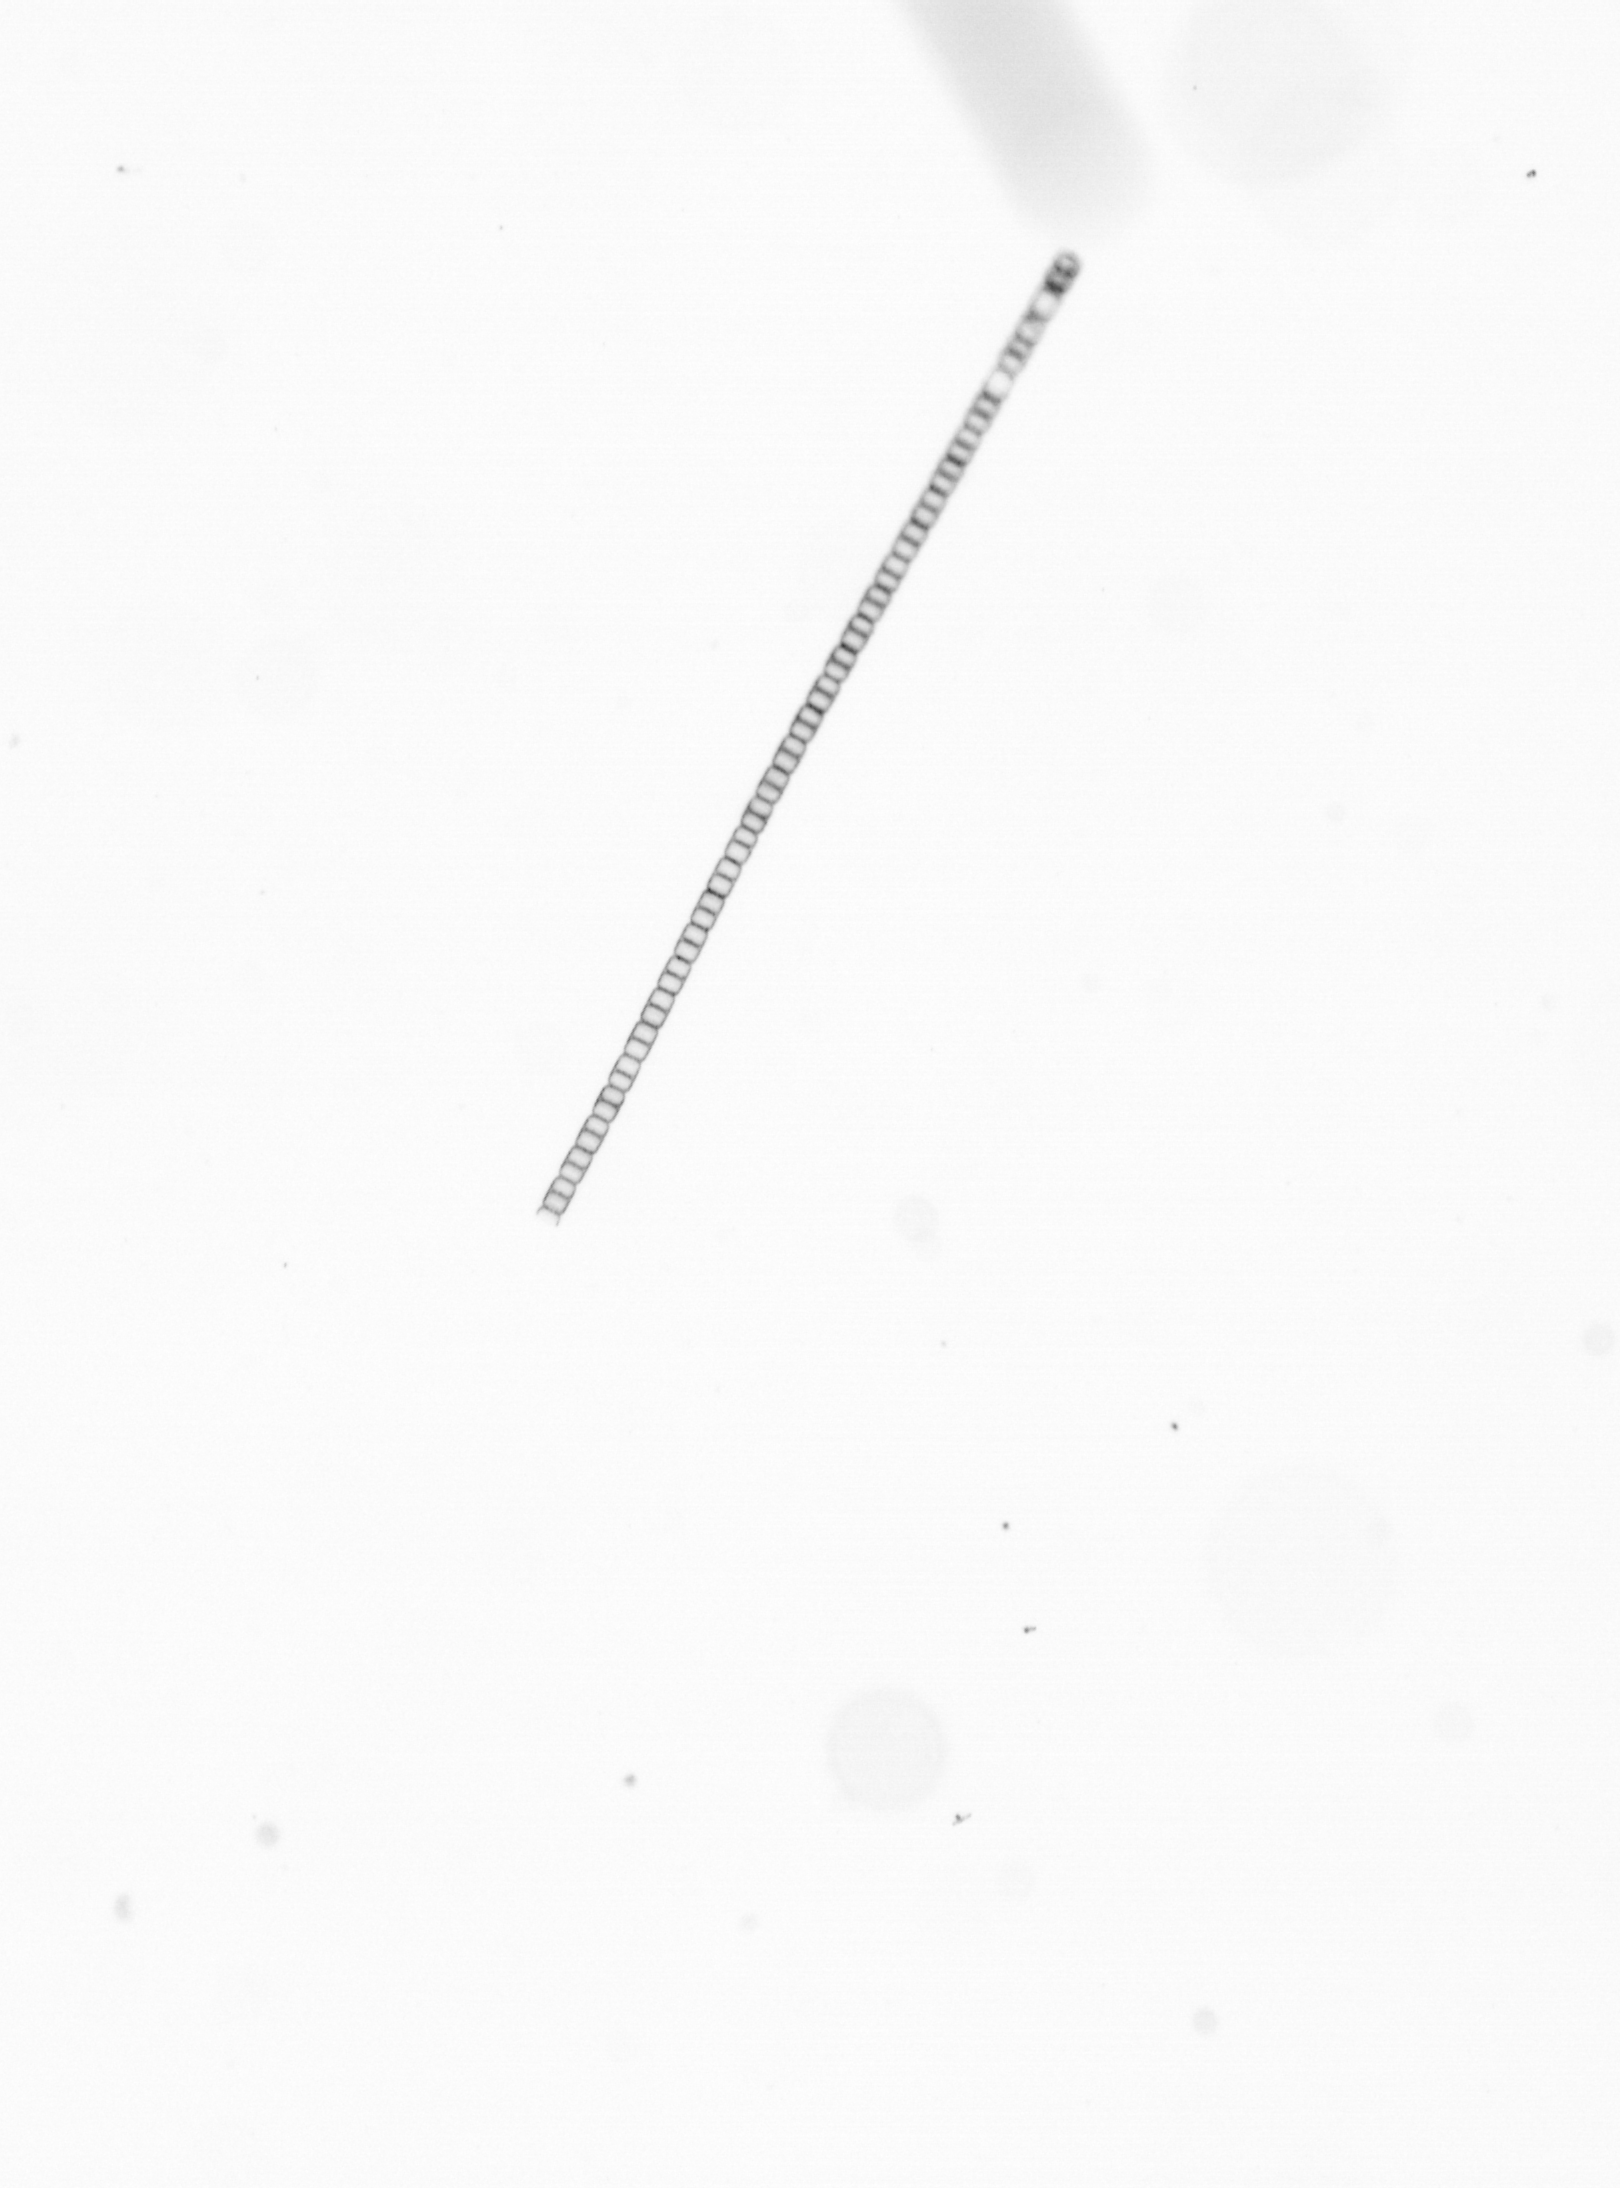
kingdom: Chromista
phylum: Ochrophyta
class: Bacillariophyceae
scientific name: Bacillariophyceae
